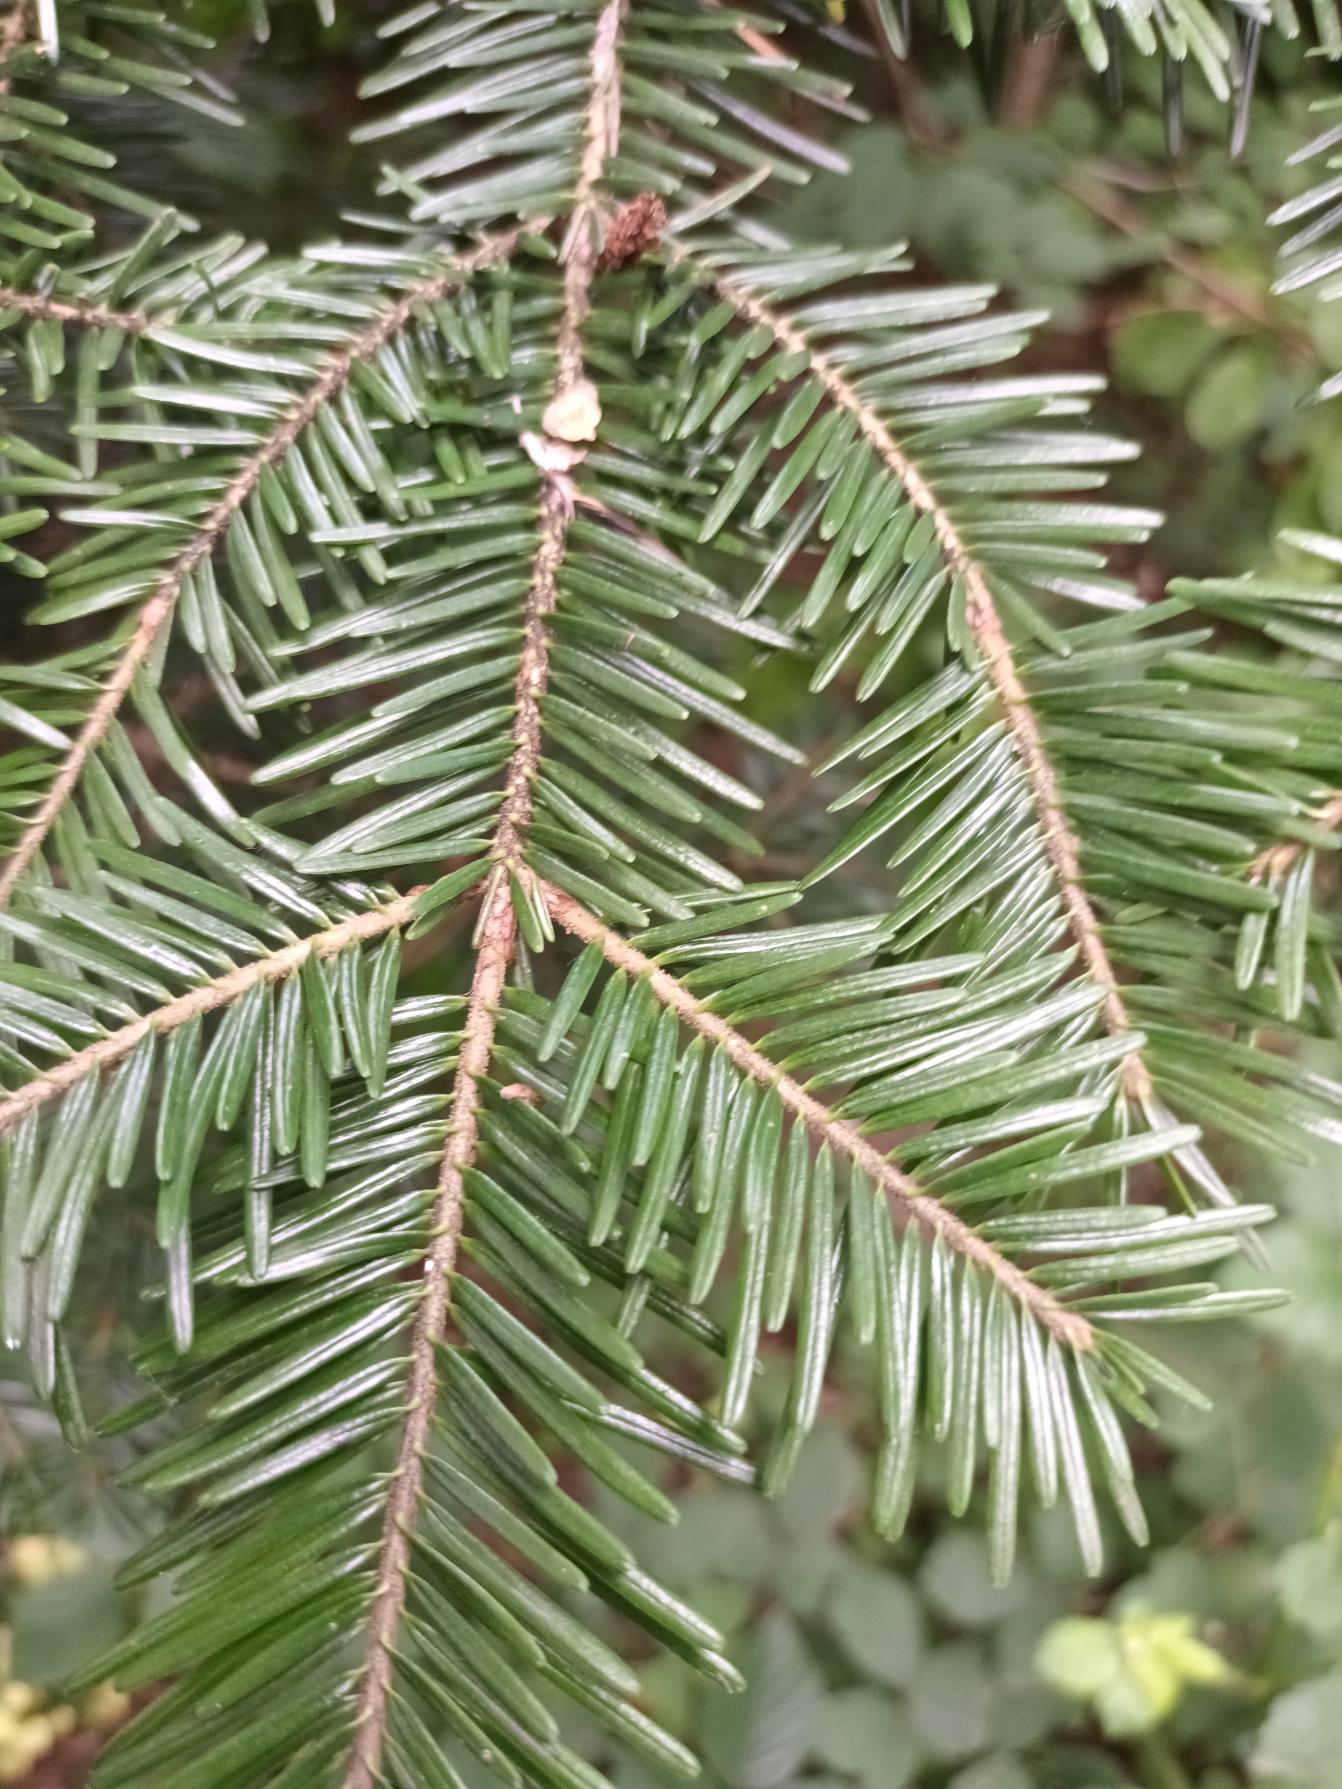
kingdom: Plantae
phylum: Tracheophyta
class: Pinopsida
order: Pinales
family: Pinaceae
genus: Abies
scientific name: Abies alba
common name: Almindelig ædelgran
